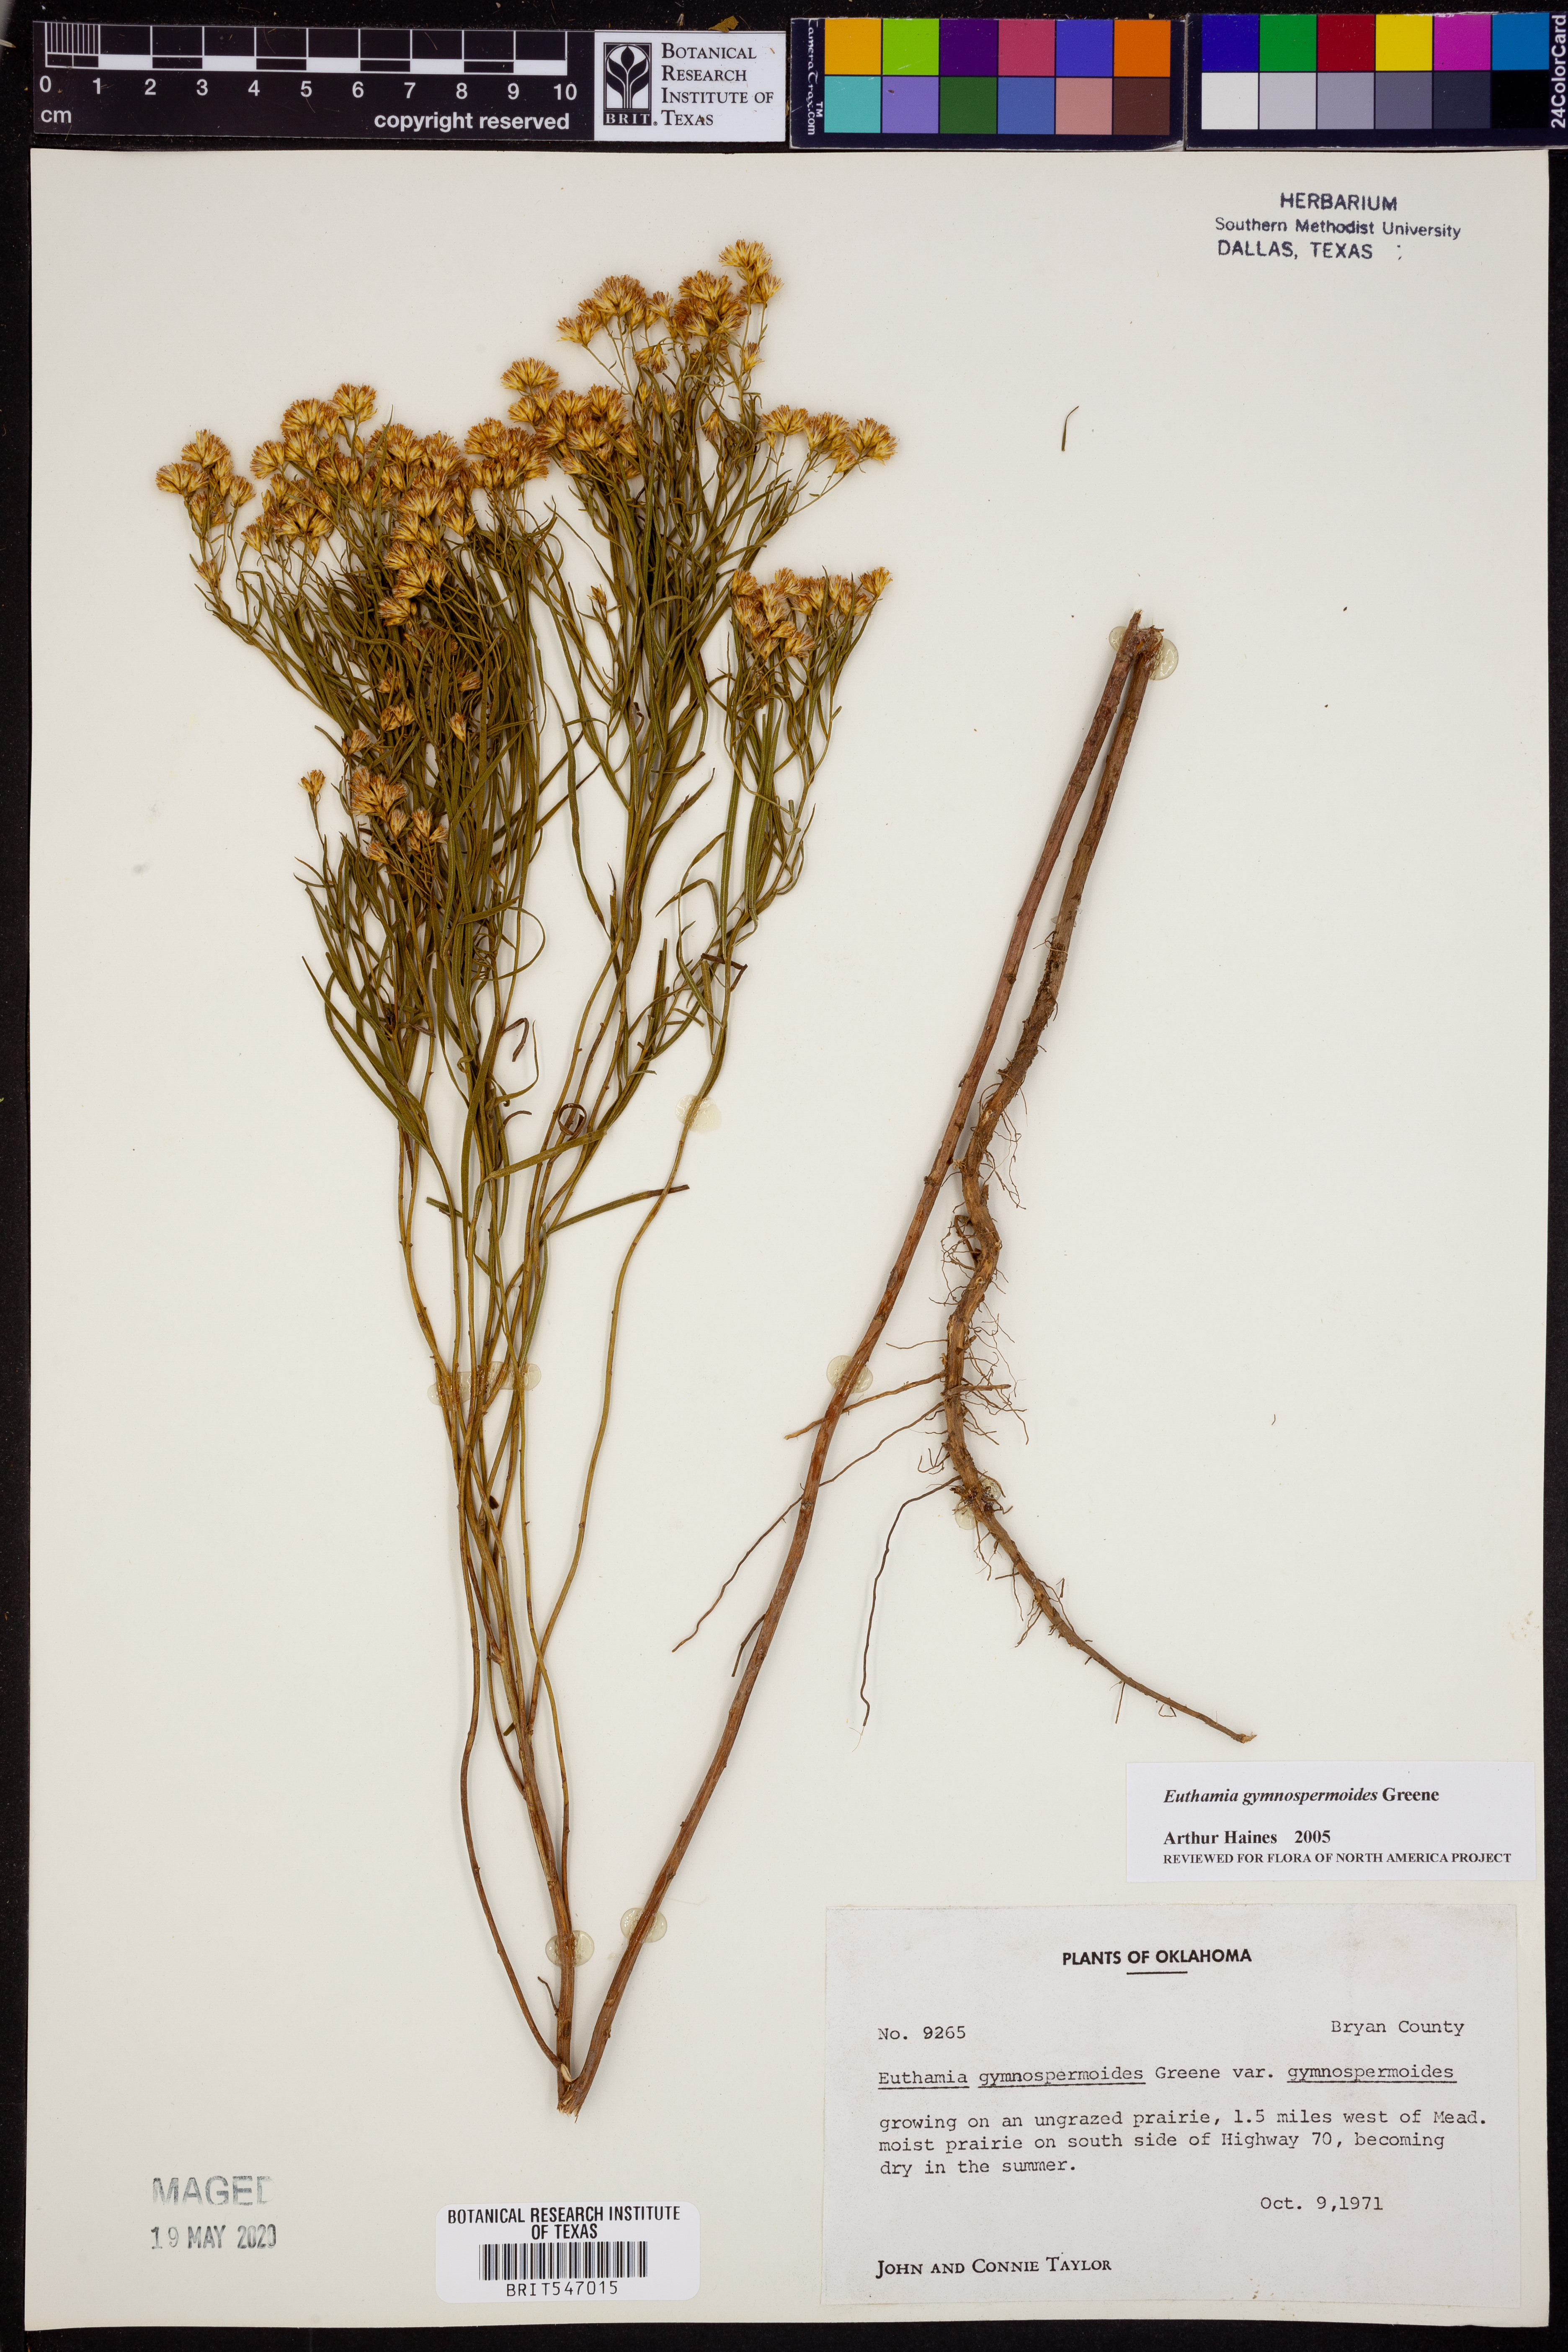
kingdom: Plantae
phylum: Tracheophyta
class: Magnoliopsida
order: Asterales
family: Asteraceae
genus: Euthamia
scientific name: Euthamia gymnospermoides
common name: Great plains goldentop
